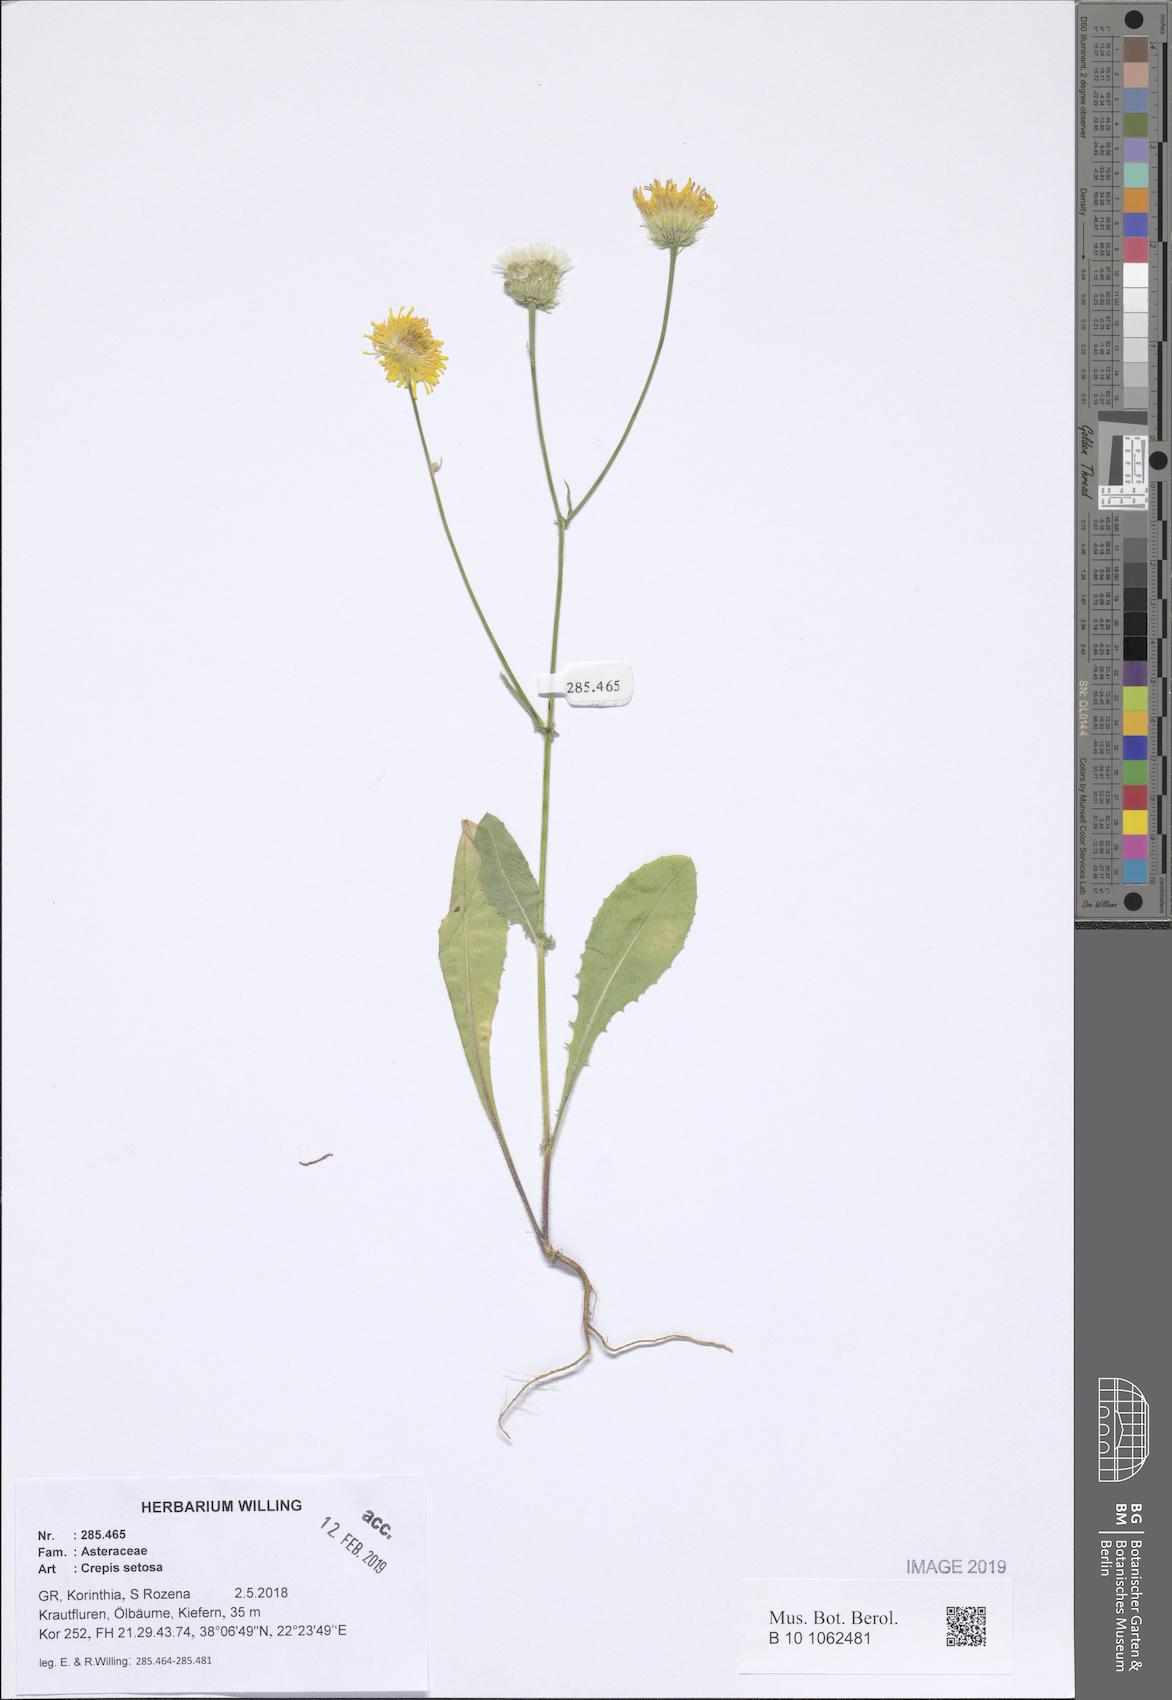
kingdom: Plantae
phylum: Tracheophyta
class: Magnoliopsida
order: Asterales
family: Asteraceae
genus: Crepis
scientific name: Crepis setosa
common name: Bristly hawk's-beard
